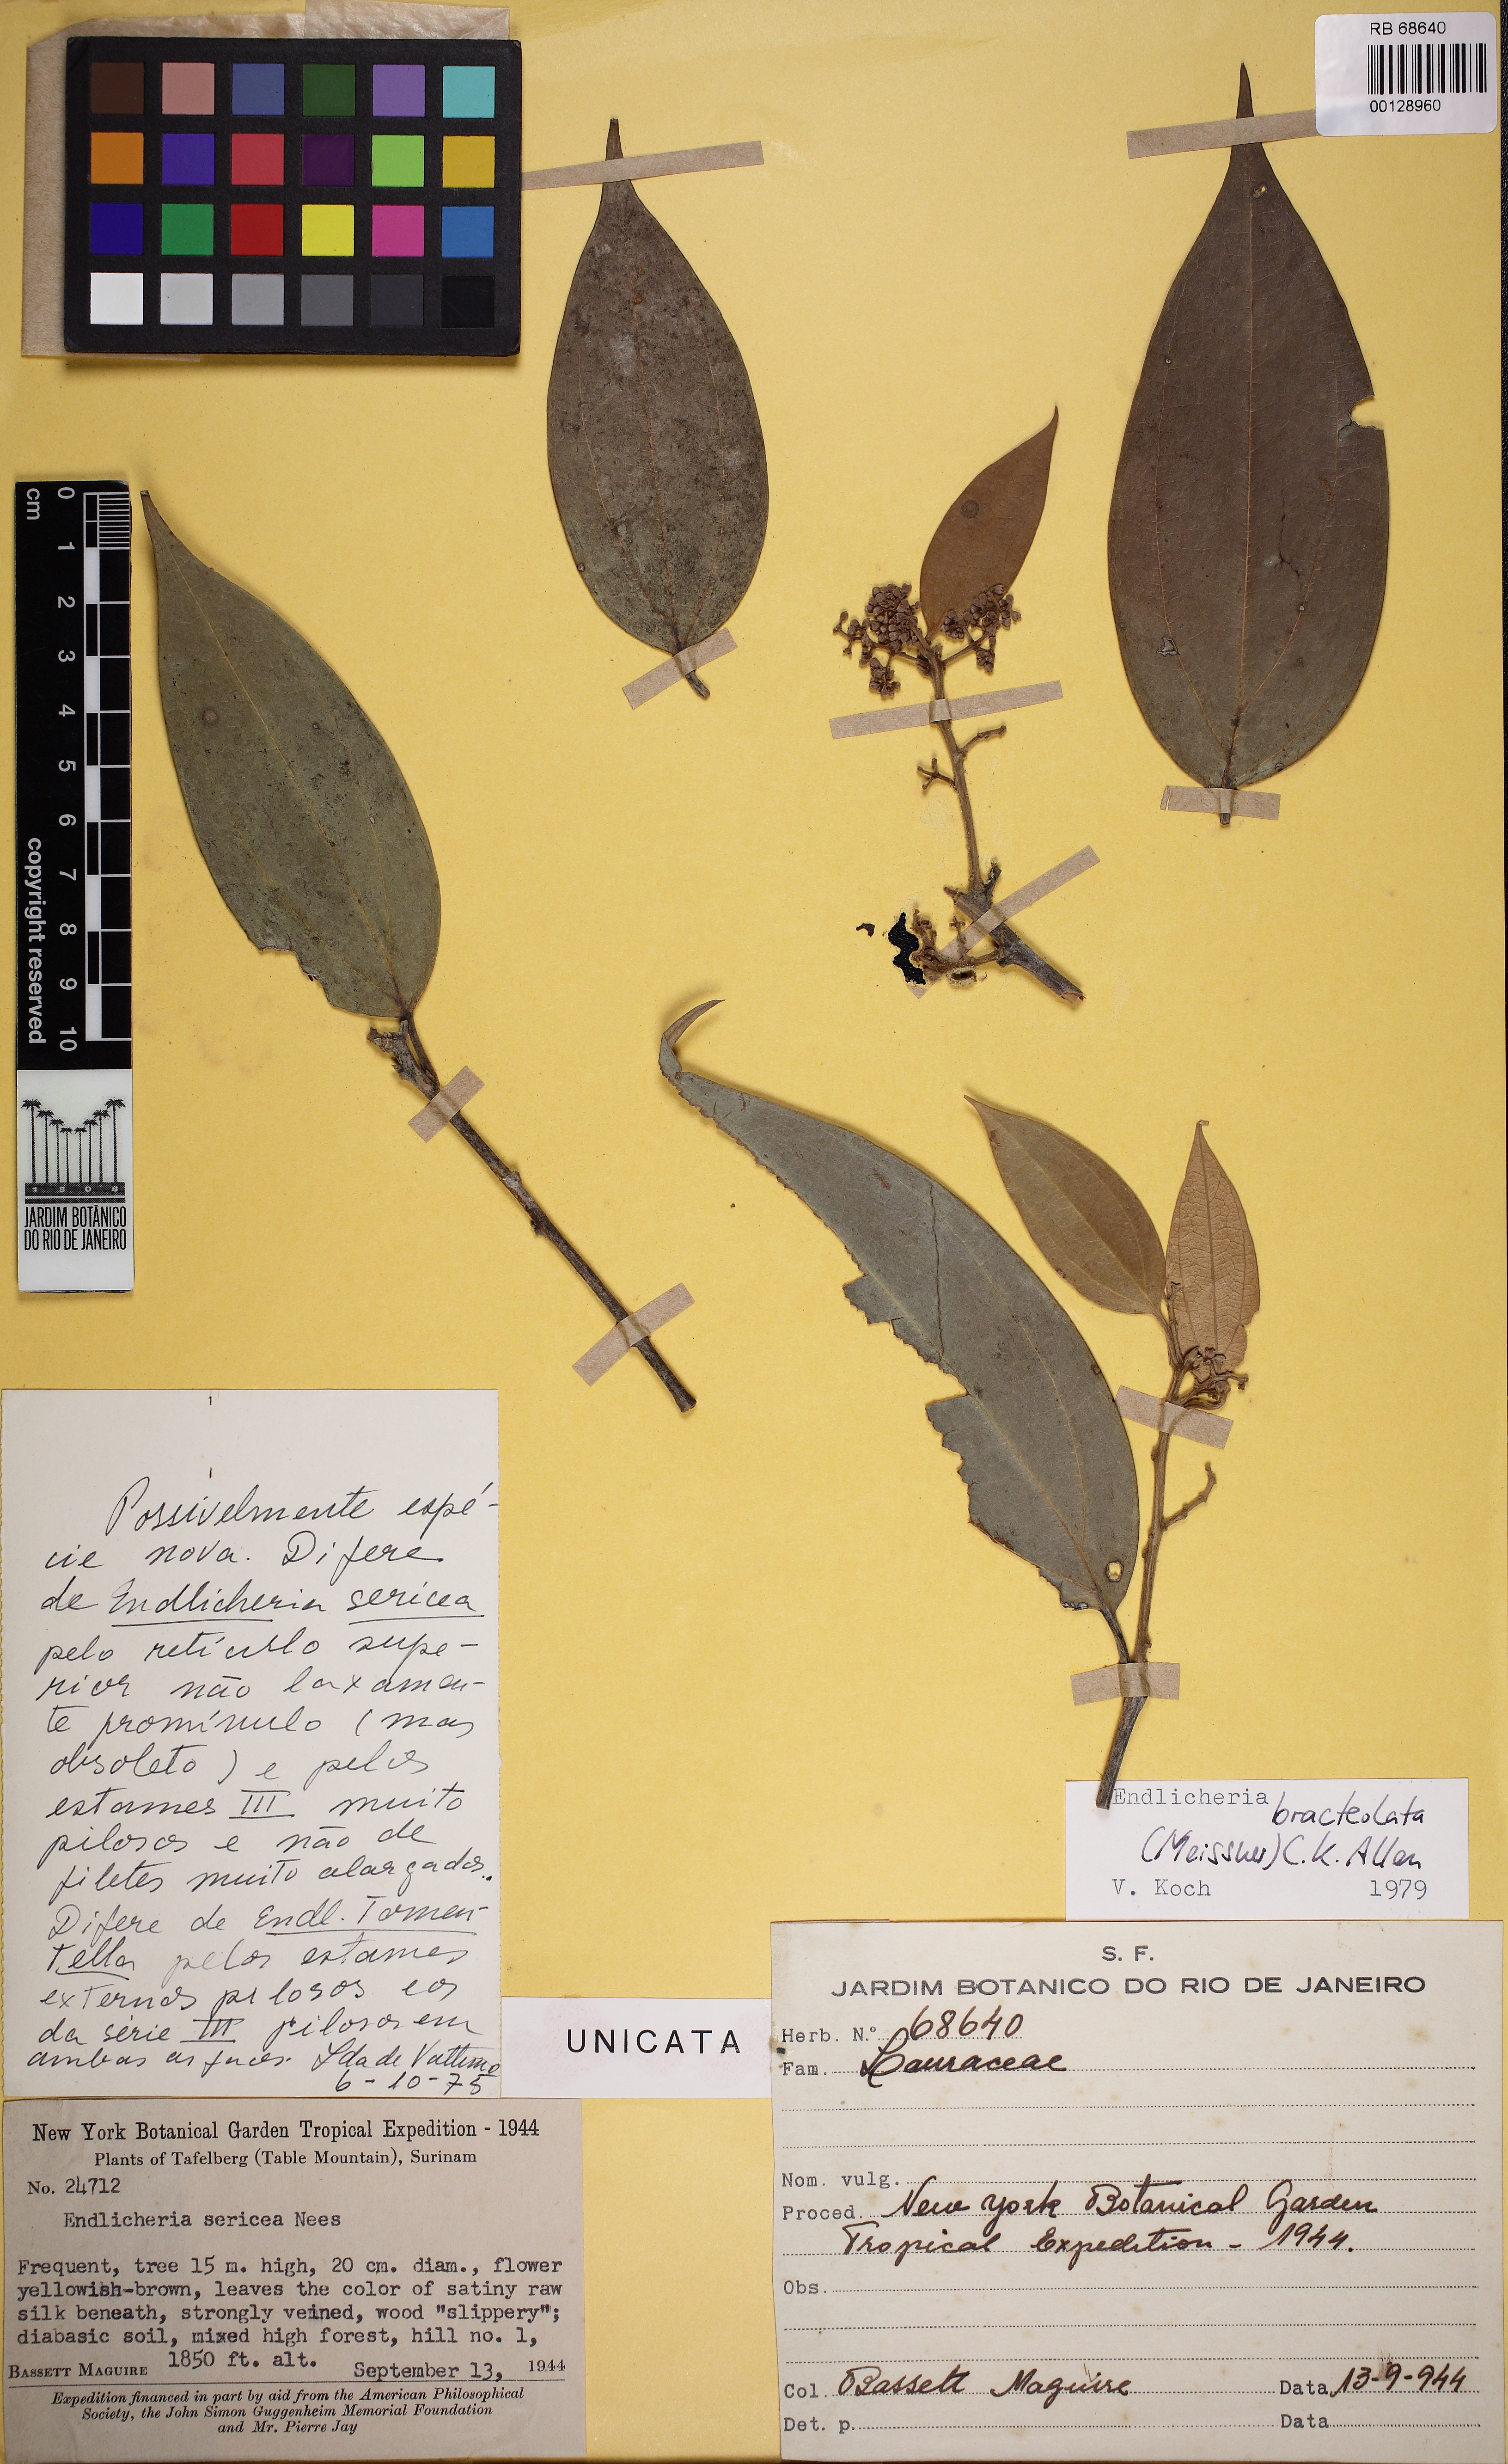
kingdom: Plantae
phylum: Tracheophyta
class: Magnoliopsida
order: Laurales
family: Lauraceae
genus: Endlicheria
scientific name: Endlicheria bracteolata
